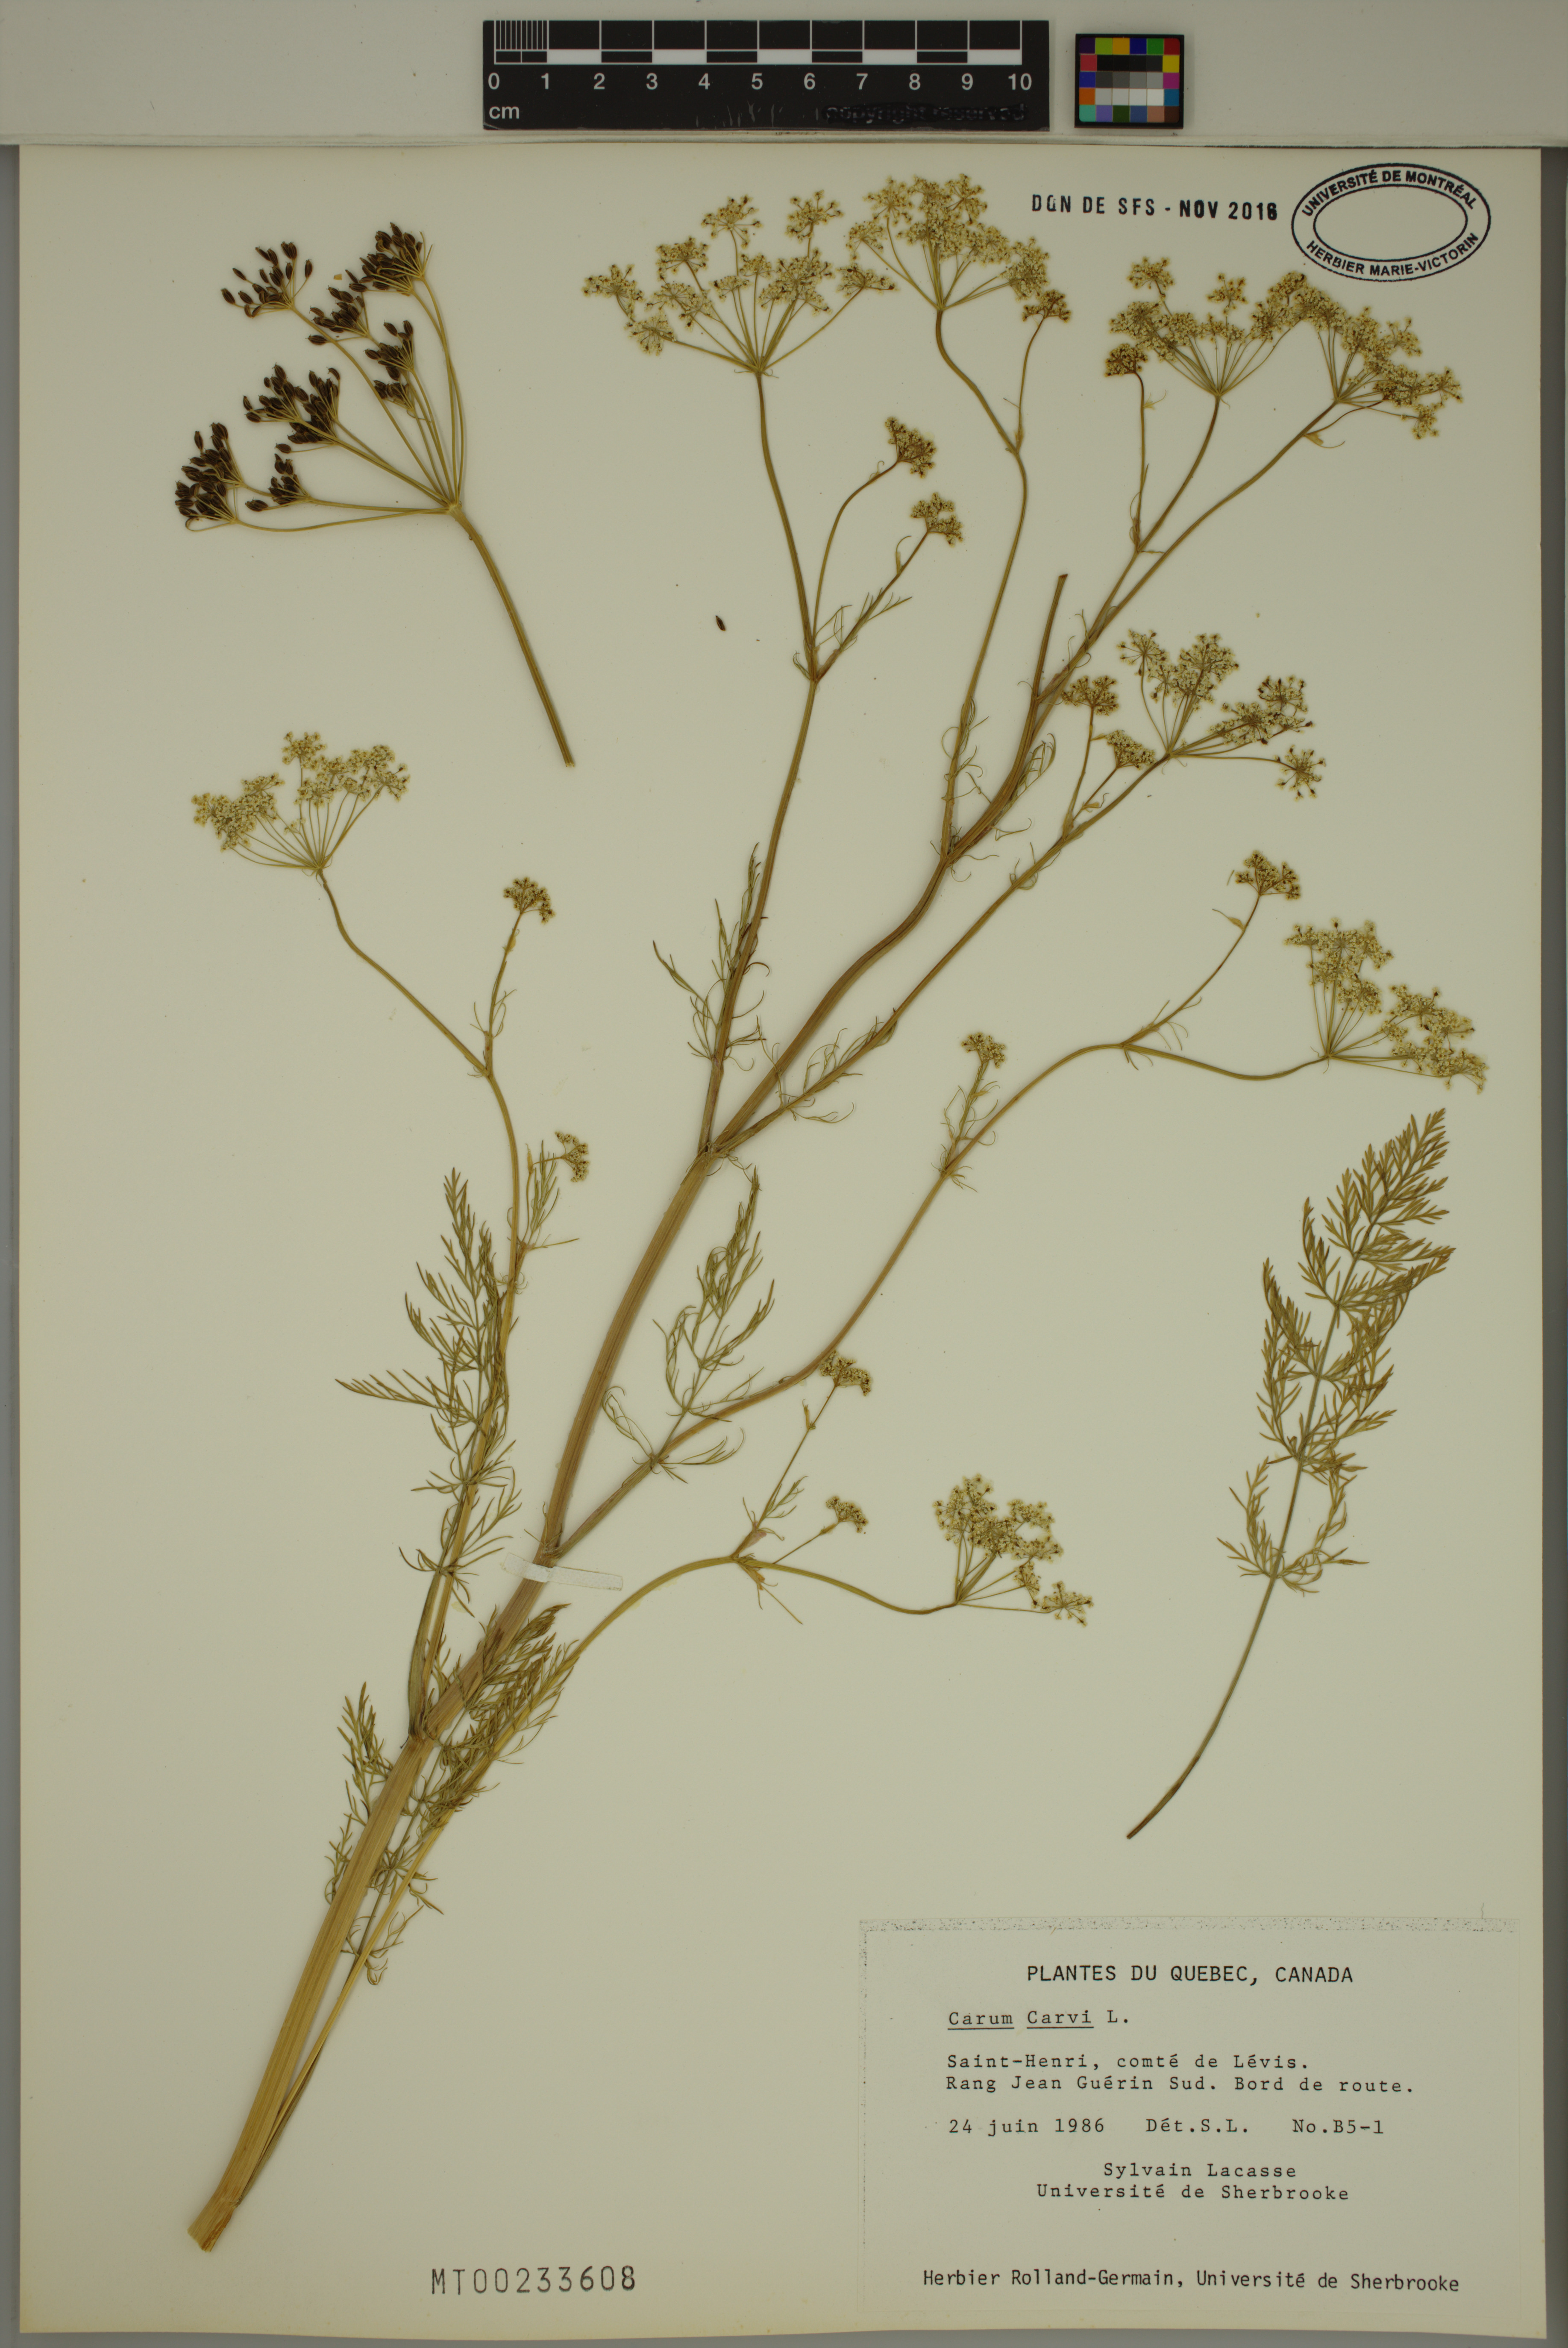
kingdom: Plantae
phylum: Tracheophyta
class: Magnoliopsida
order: Apiales
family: Apiaceae
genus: Carum
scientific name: Carum carvi
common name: Caraway
